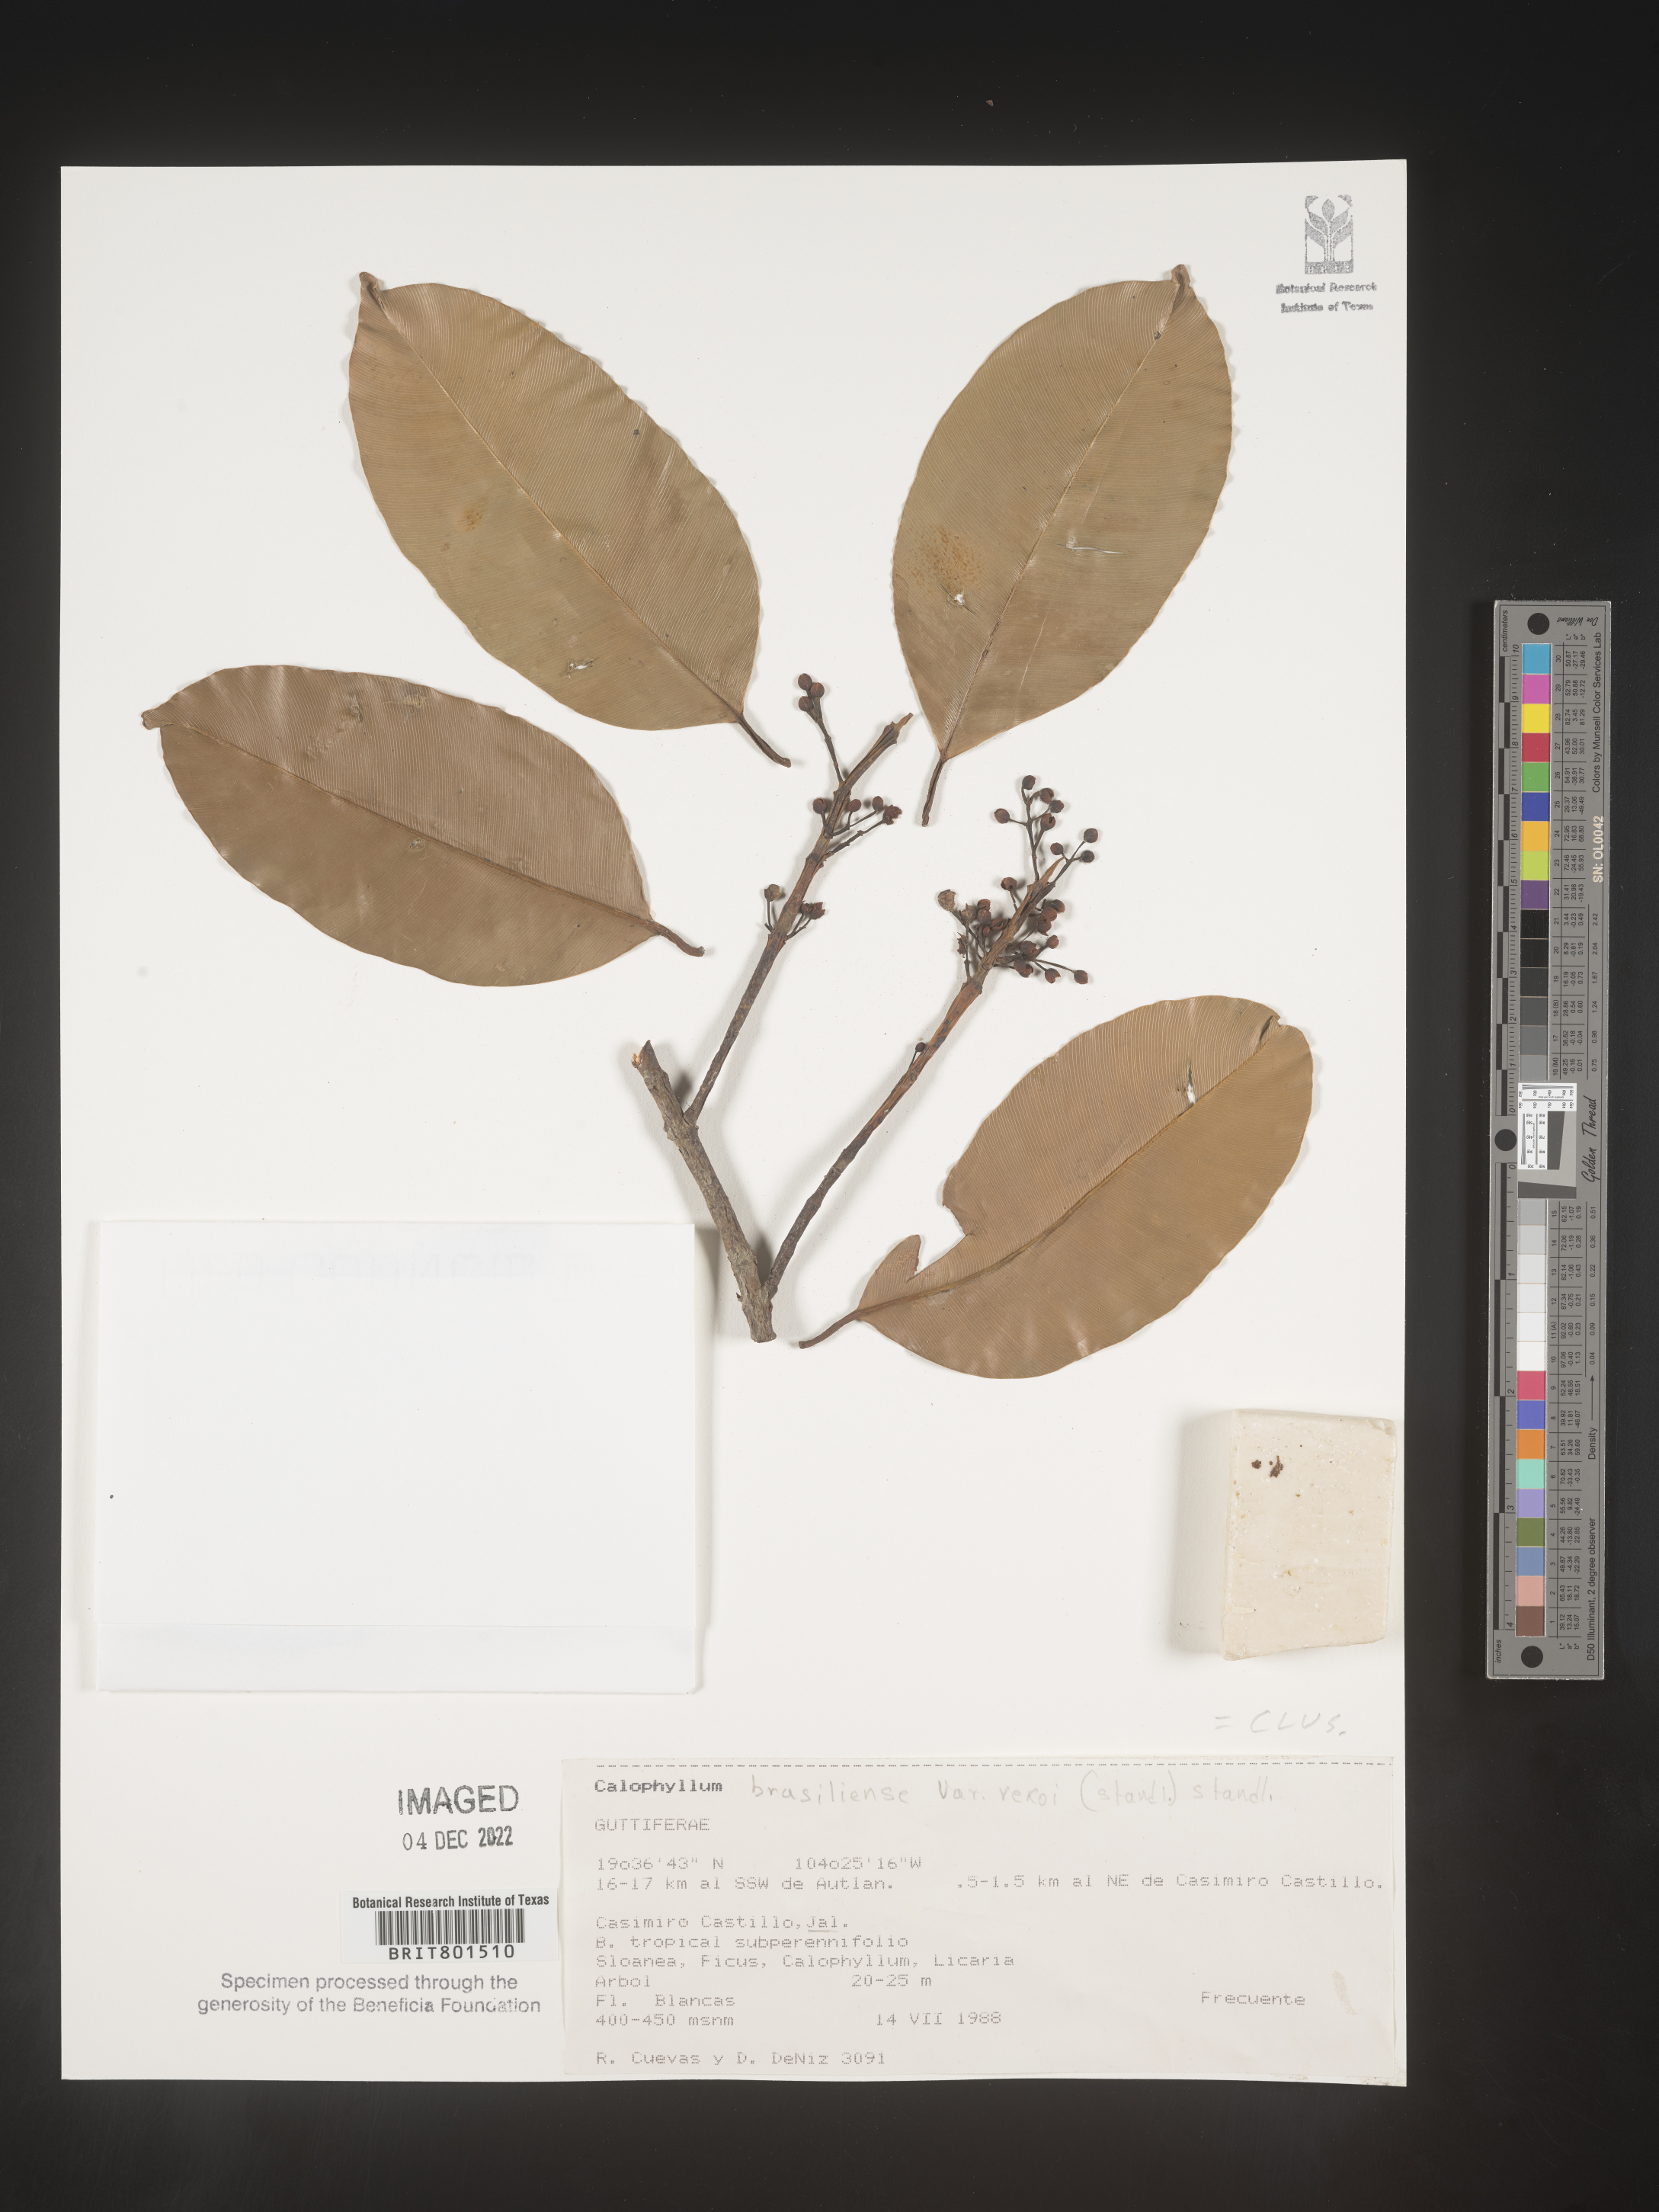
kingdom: Plantae
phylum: Tracheophyta
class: Magnoliopsida
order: Malpighiales
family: Calophyllaceae
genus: Calophyllum
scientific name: Calophyllum
